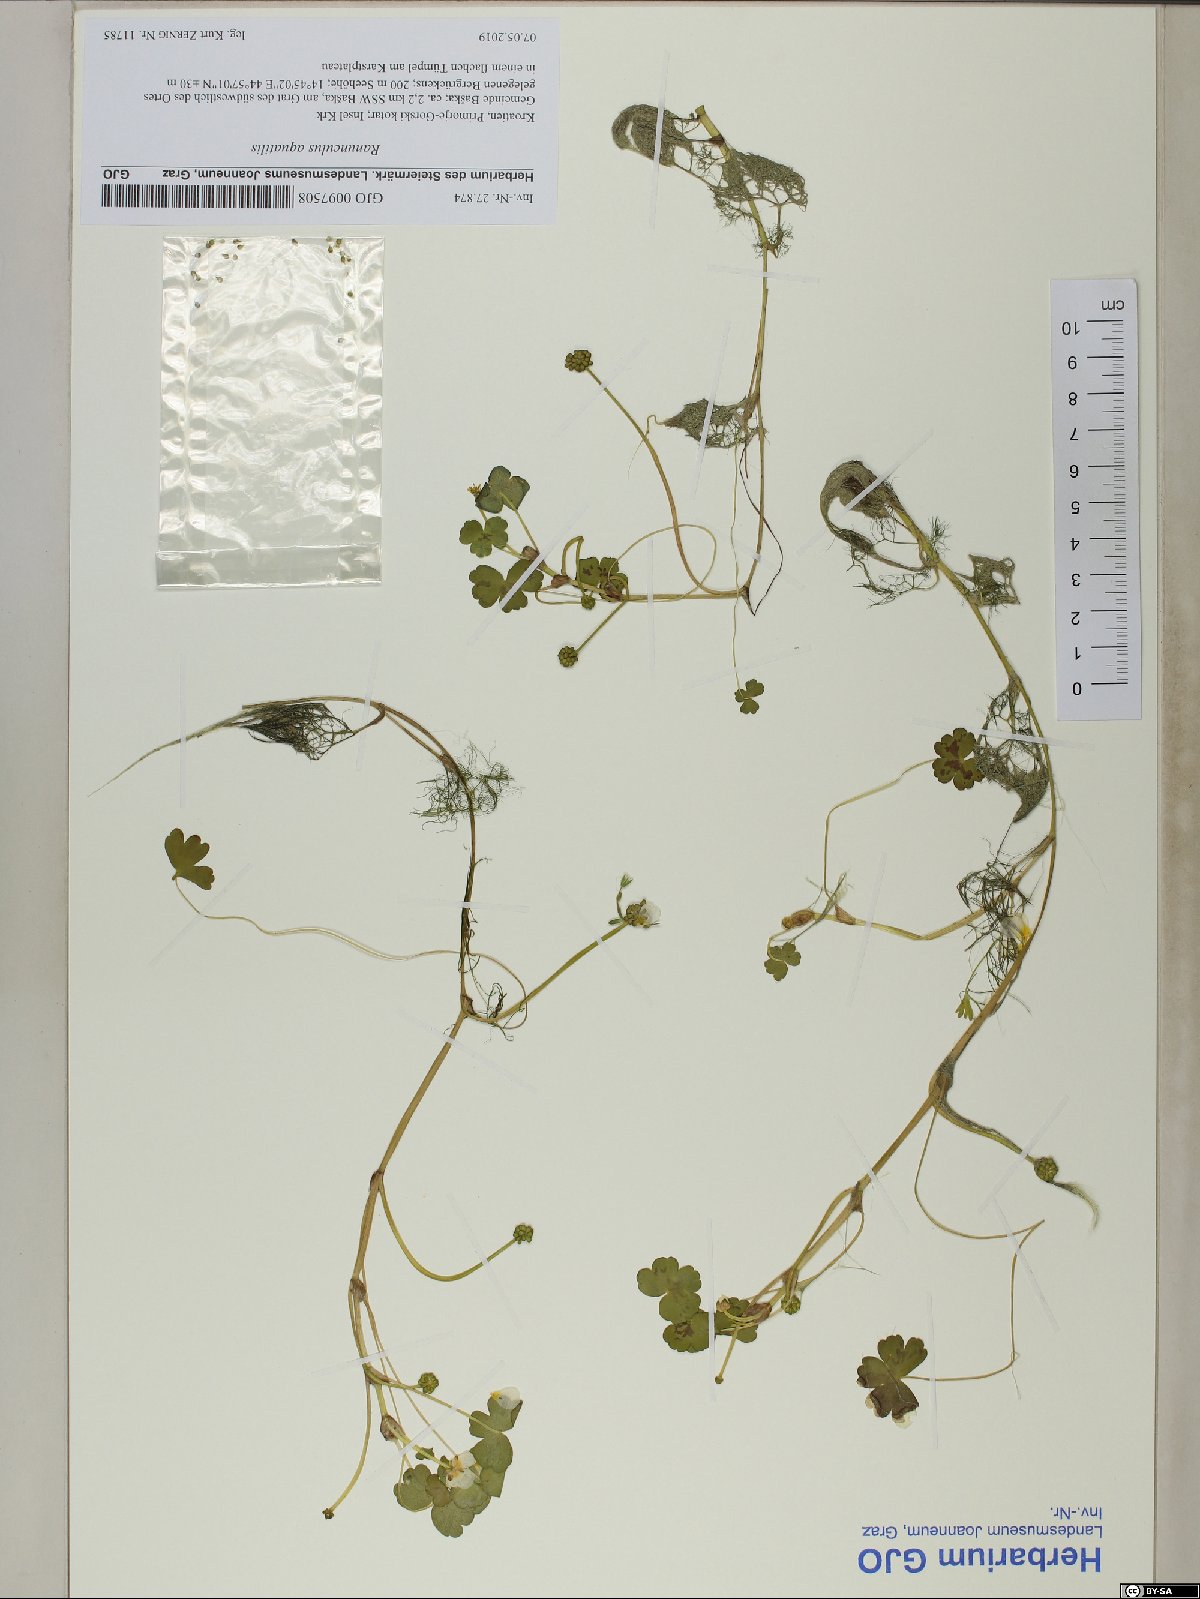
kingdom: Plantae
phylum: Tracheophyta
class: Magnoliopsida
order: Ranunculales
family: Ranunculaceae
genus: Ranunculus
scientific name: Ranunculus aquatilis
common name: Common water-crowfoot
